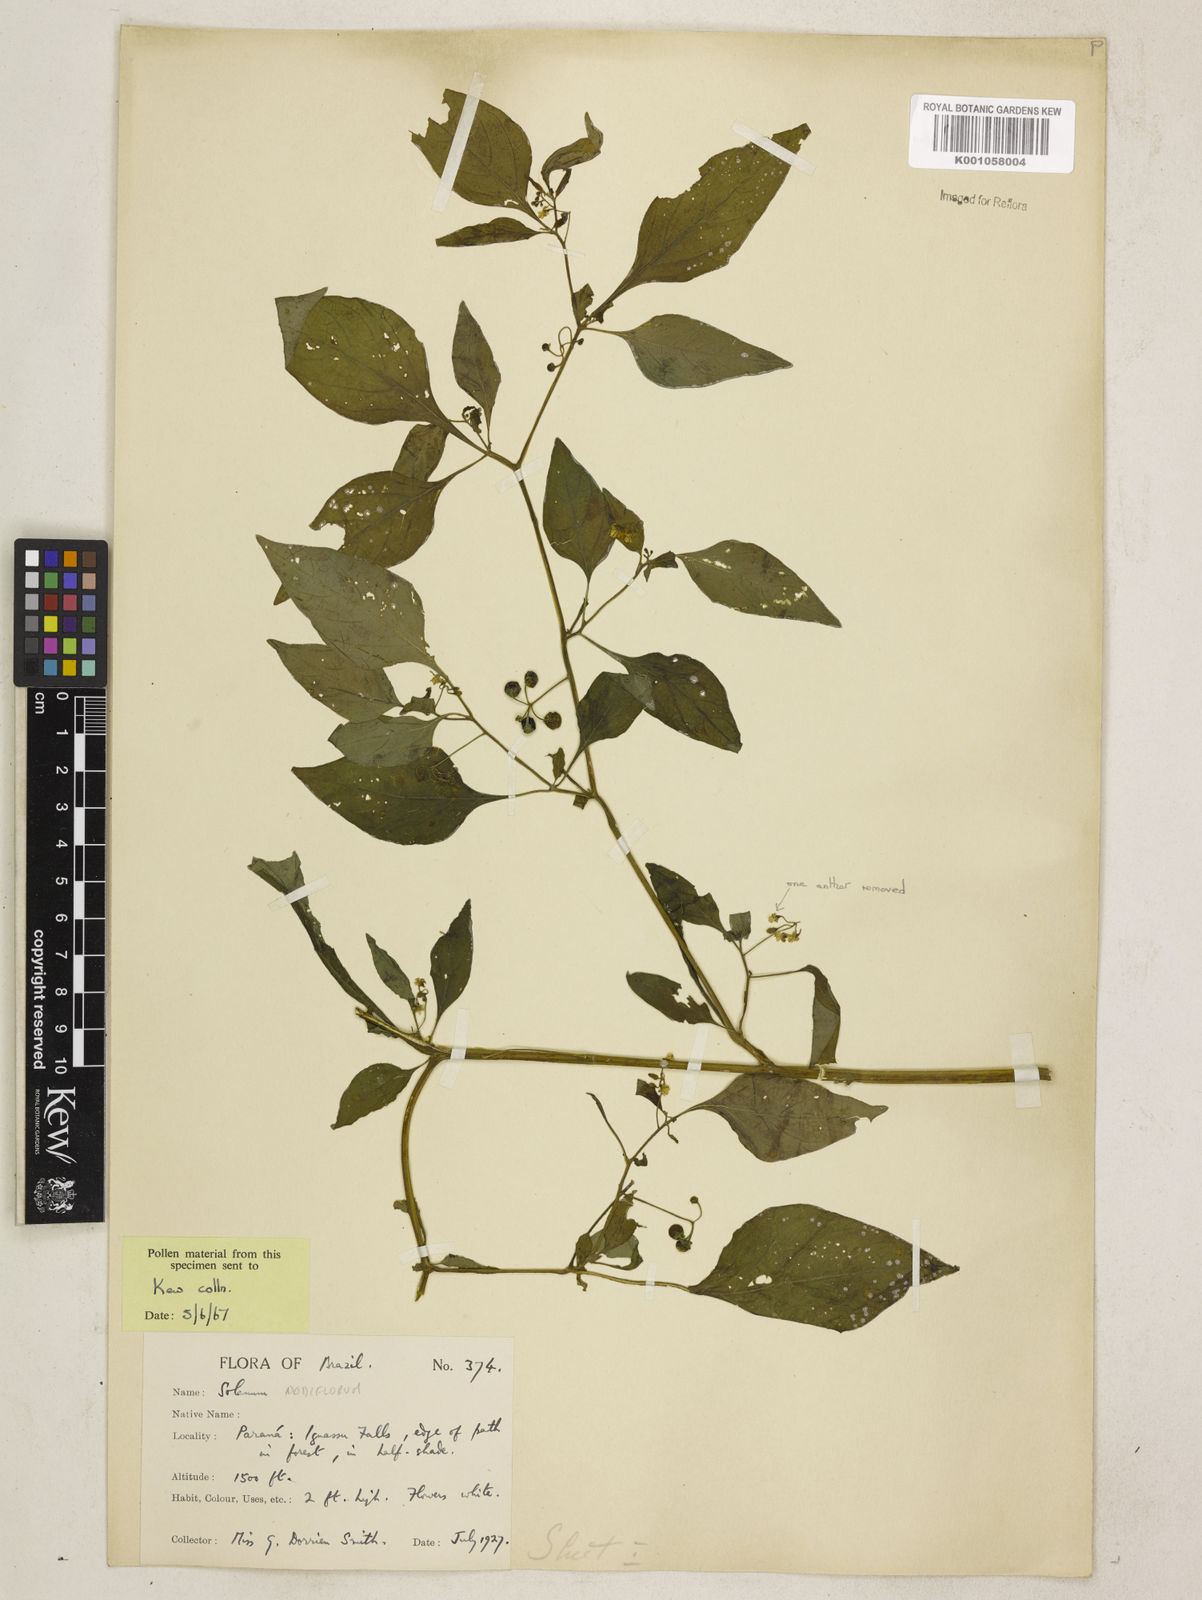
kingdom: Plantae
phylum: Tracheophyta
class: Magnoliopsida
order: Solanales
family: Solanaceae
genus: Solanum
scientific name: Solanum americanum
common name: American black nightshade
